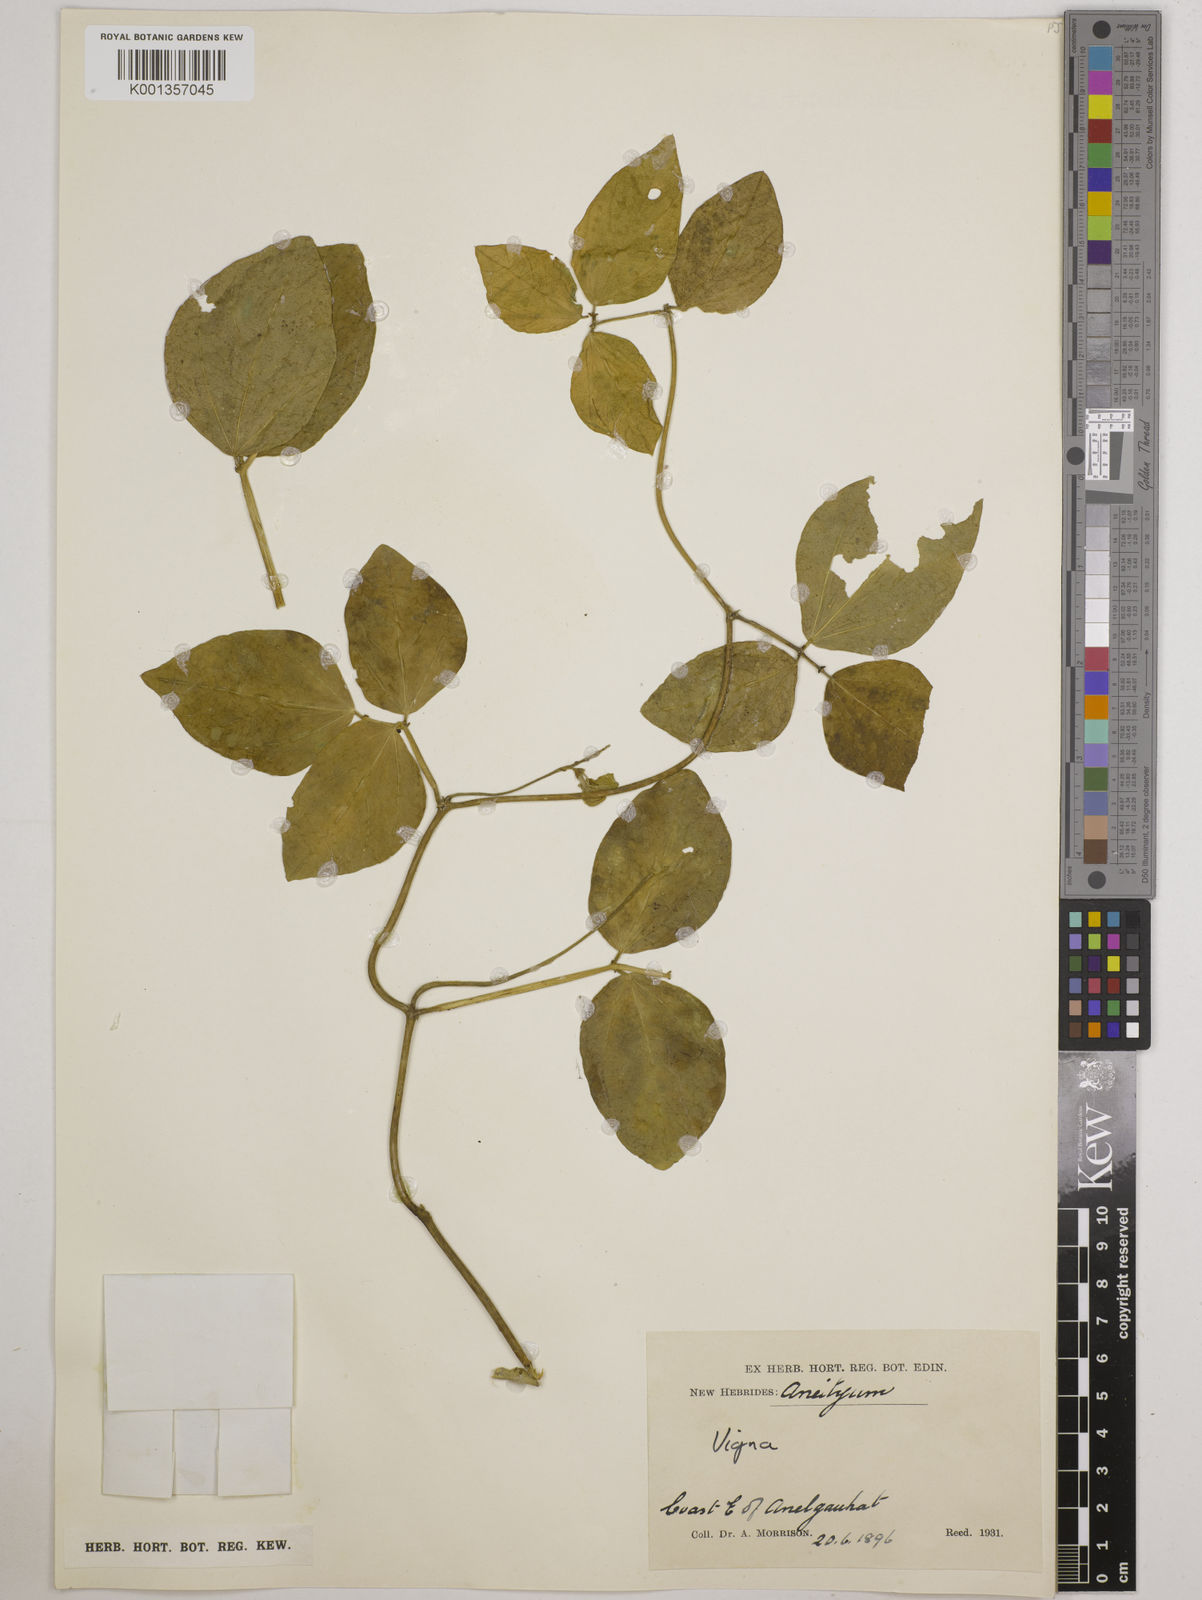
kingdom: Plantae
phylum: Tracheophyta
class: Magnoliopsida
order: Fabales
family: Fabaceae
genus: Vigna
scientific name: Vigna
